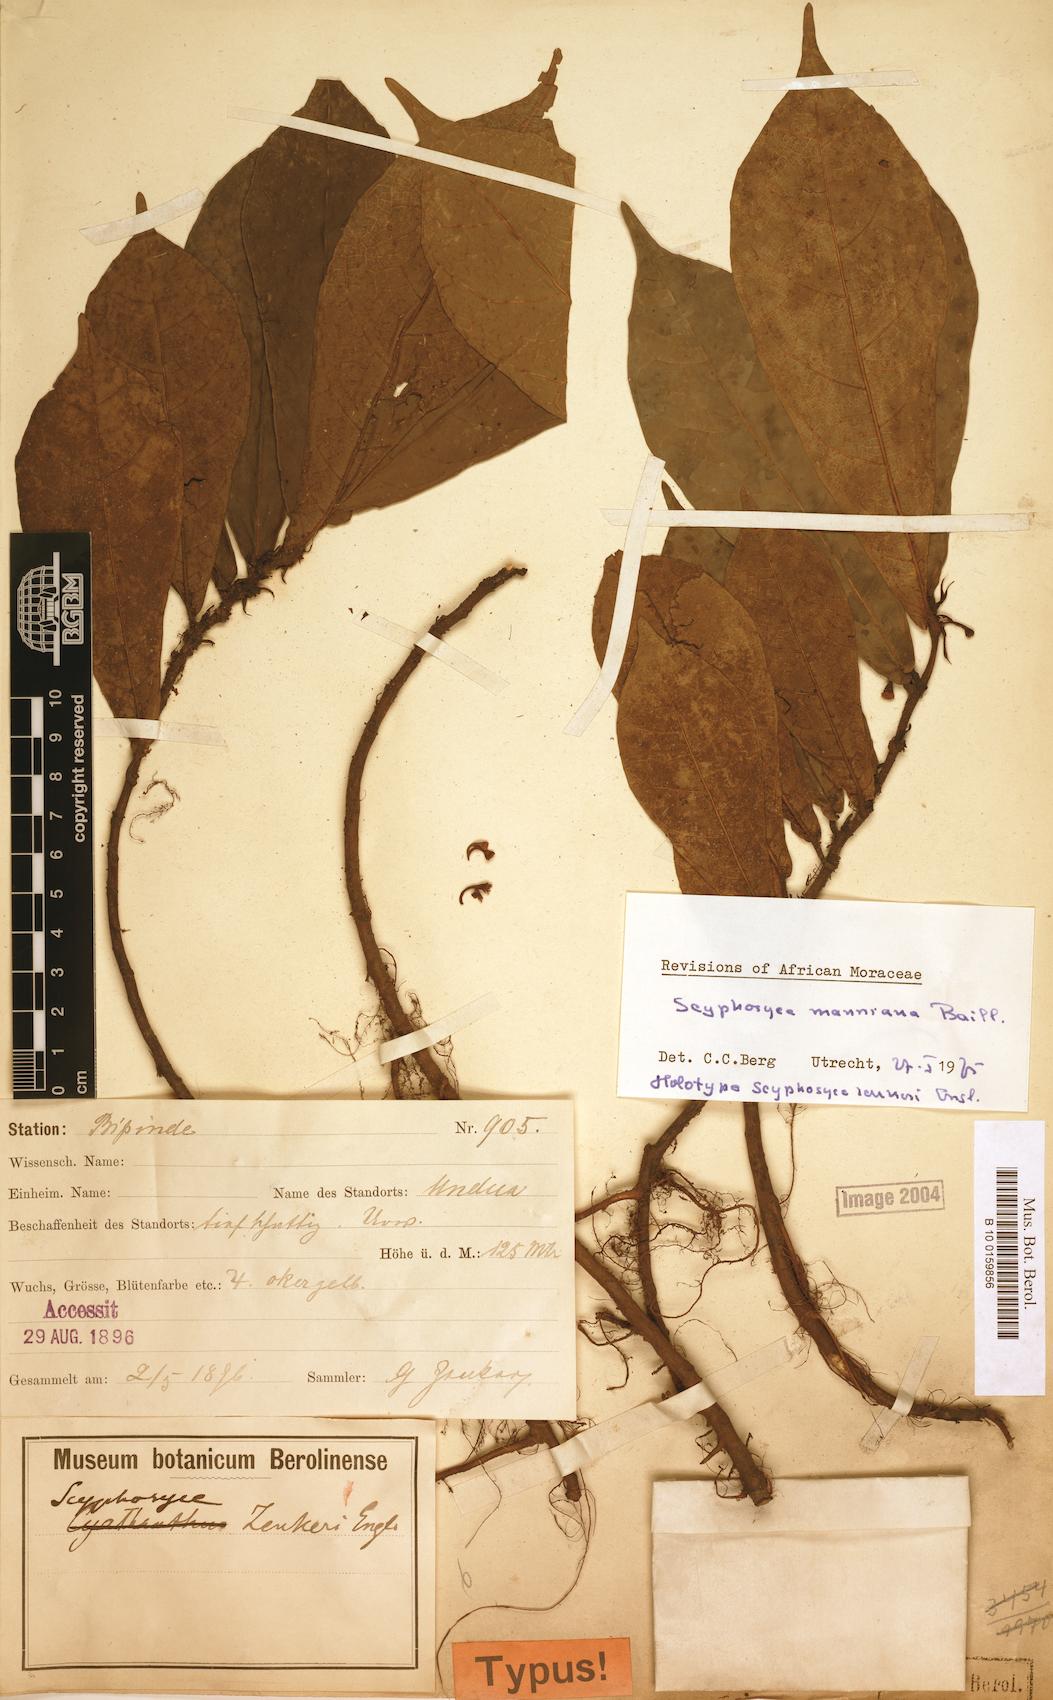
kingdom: Plantae
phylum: Tracheophyta
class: Magnoliopsida
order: Rosales
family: Moraceae
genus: Scyphosyce
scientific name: Scyphosyce manniana
